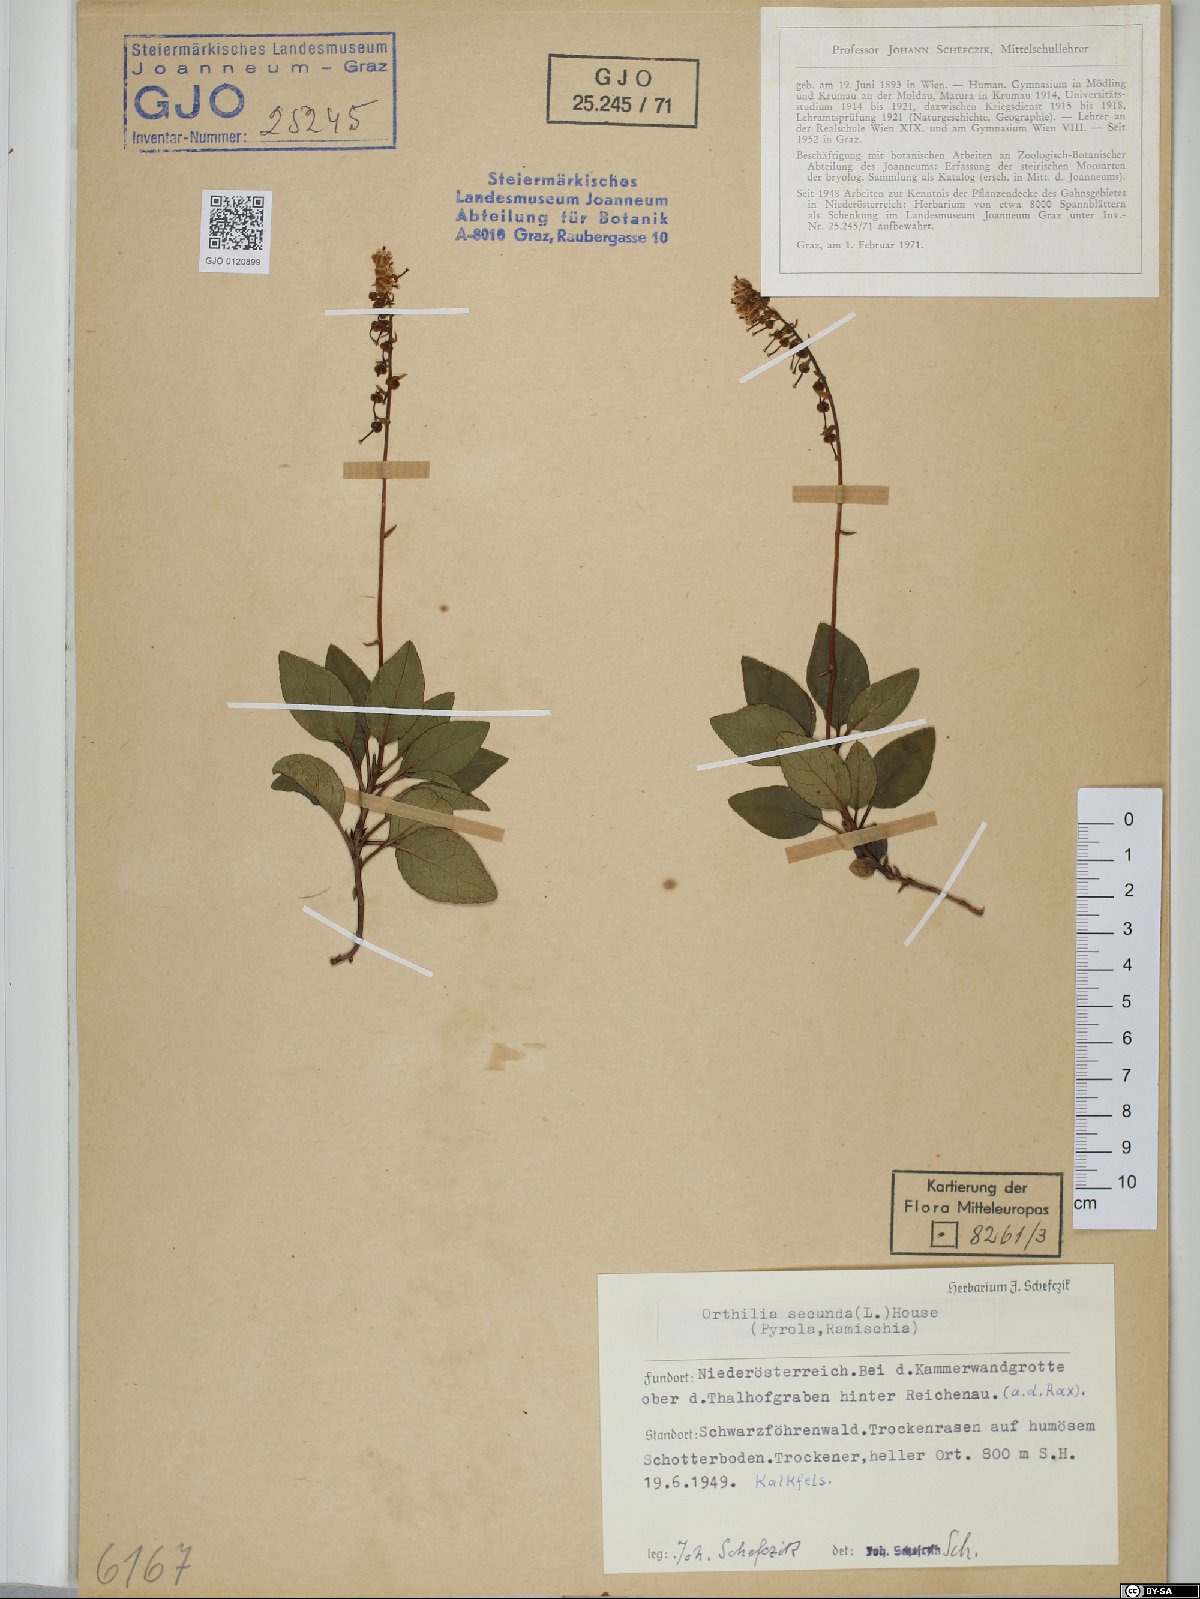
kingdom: Plantae
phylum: Tracheophyta
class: Magnoliopsida
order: Ericales
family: Ericaceae
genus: Orthilia
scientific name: Orthilia secunda
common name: One-sided orthilia
